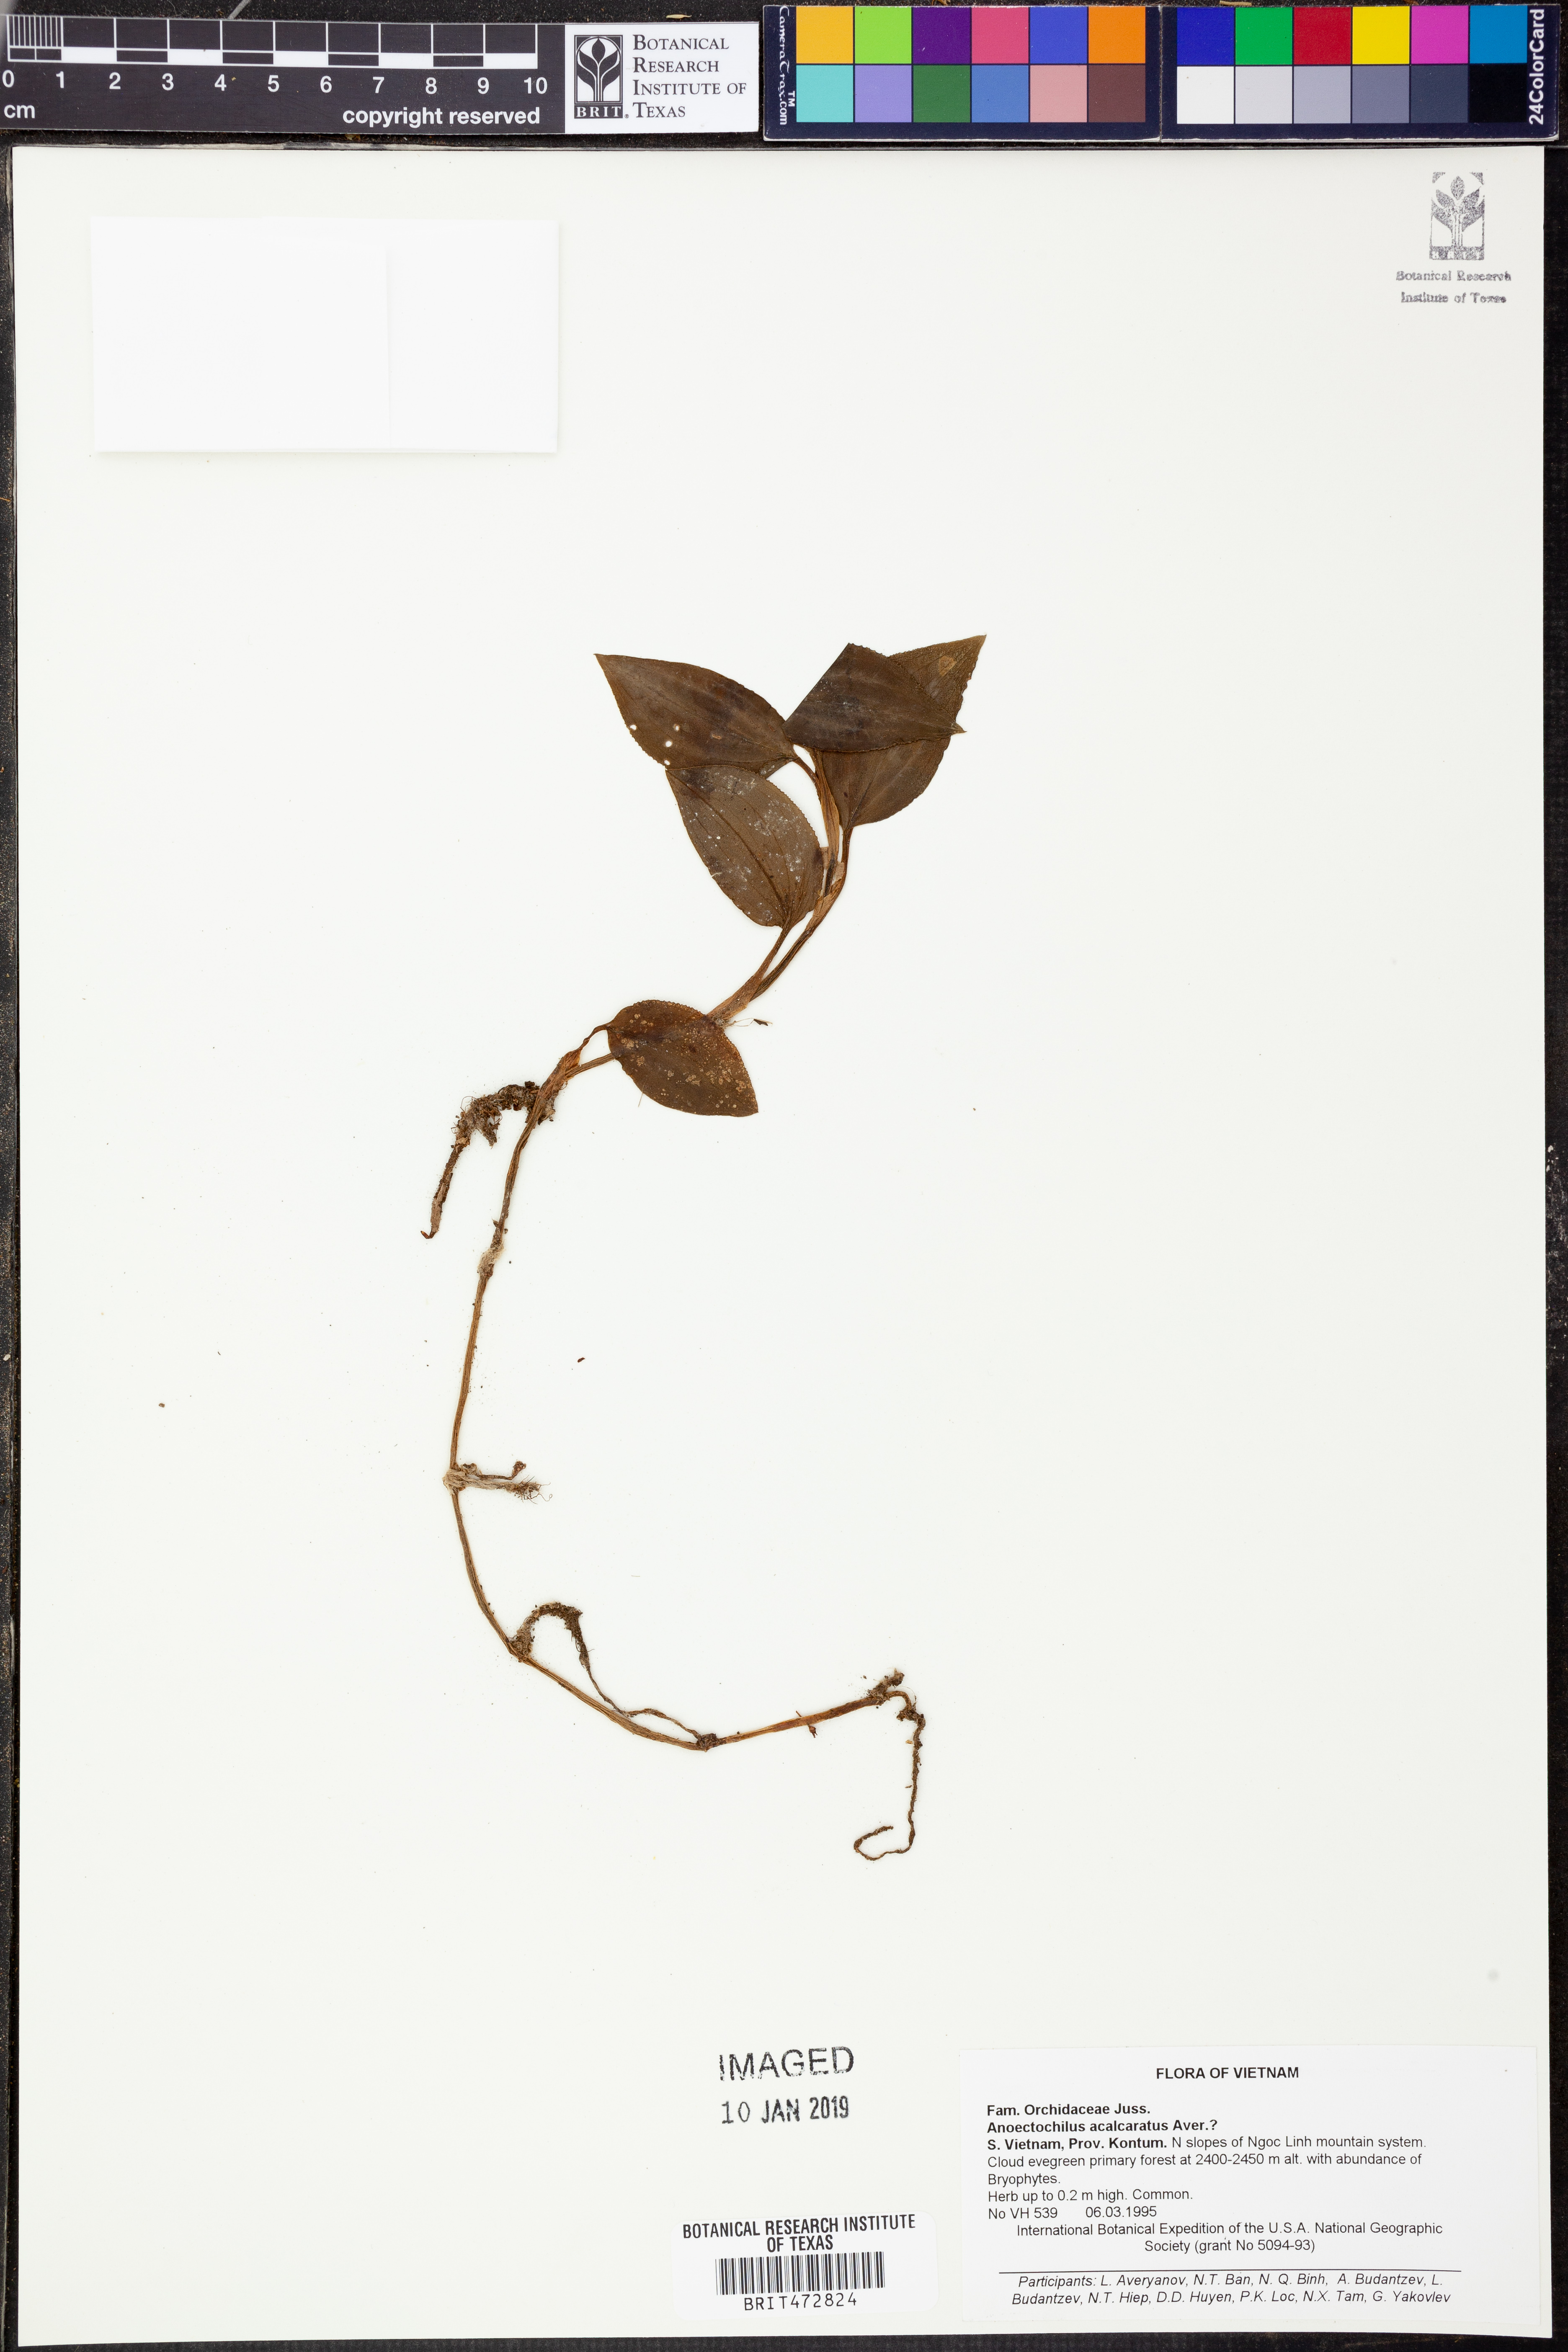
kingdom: Plantae
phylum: Tracheophyta
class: Liliopsida
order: Asparagales
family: Orchidaceae
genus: Odontochilus
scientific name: Odontochilus acalcaratus
